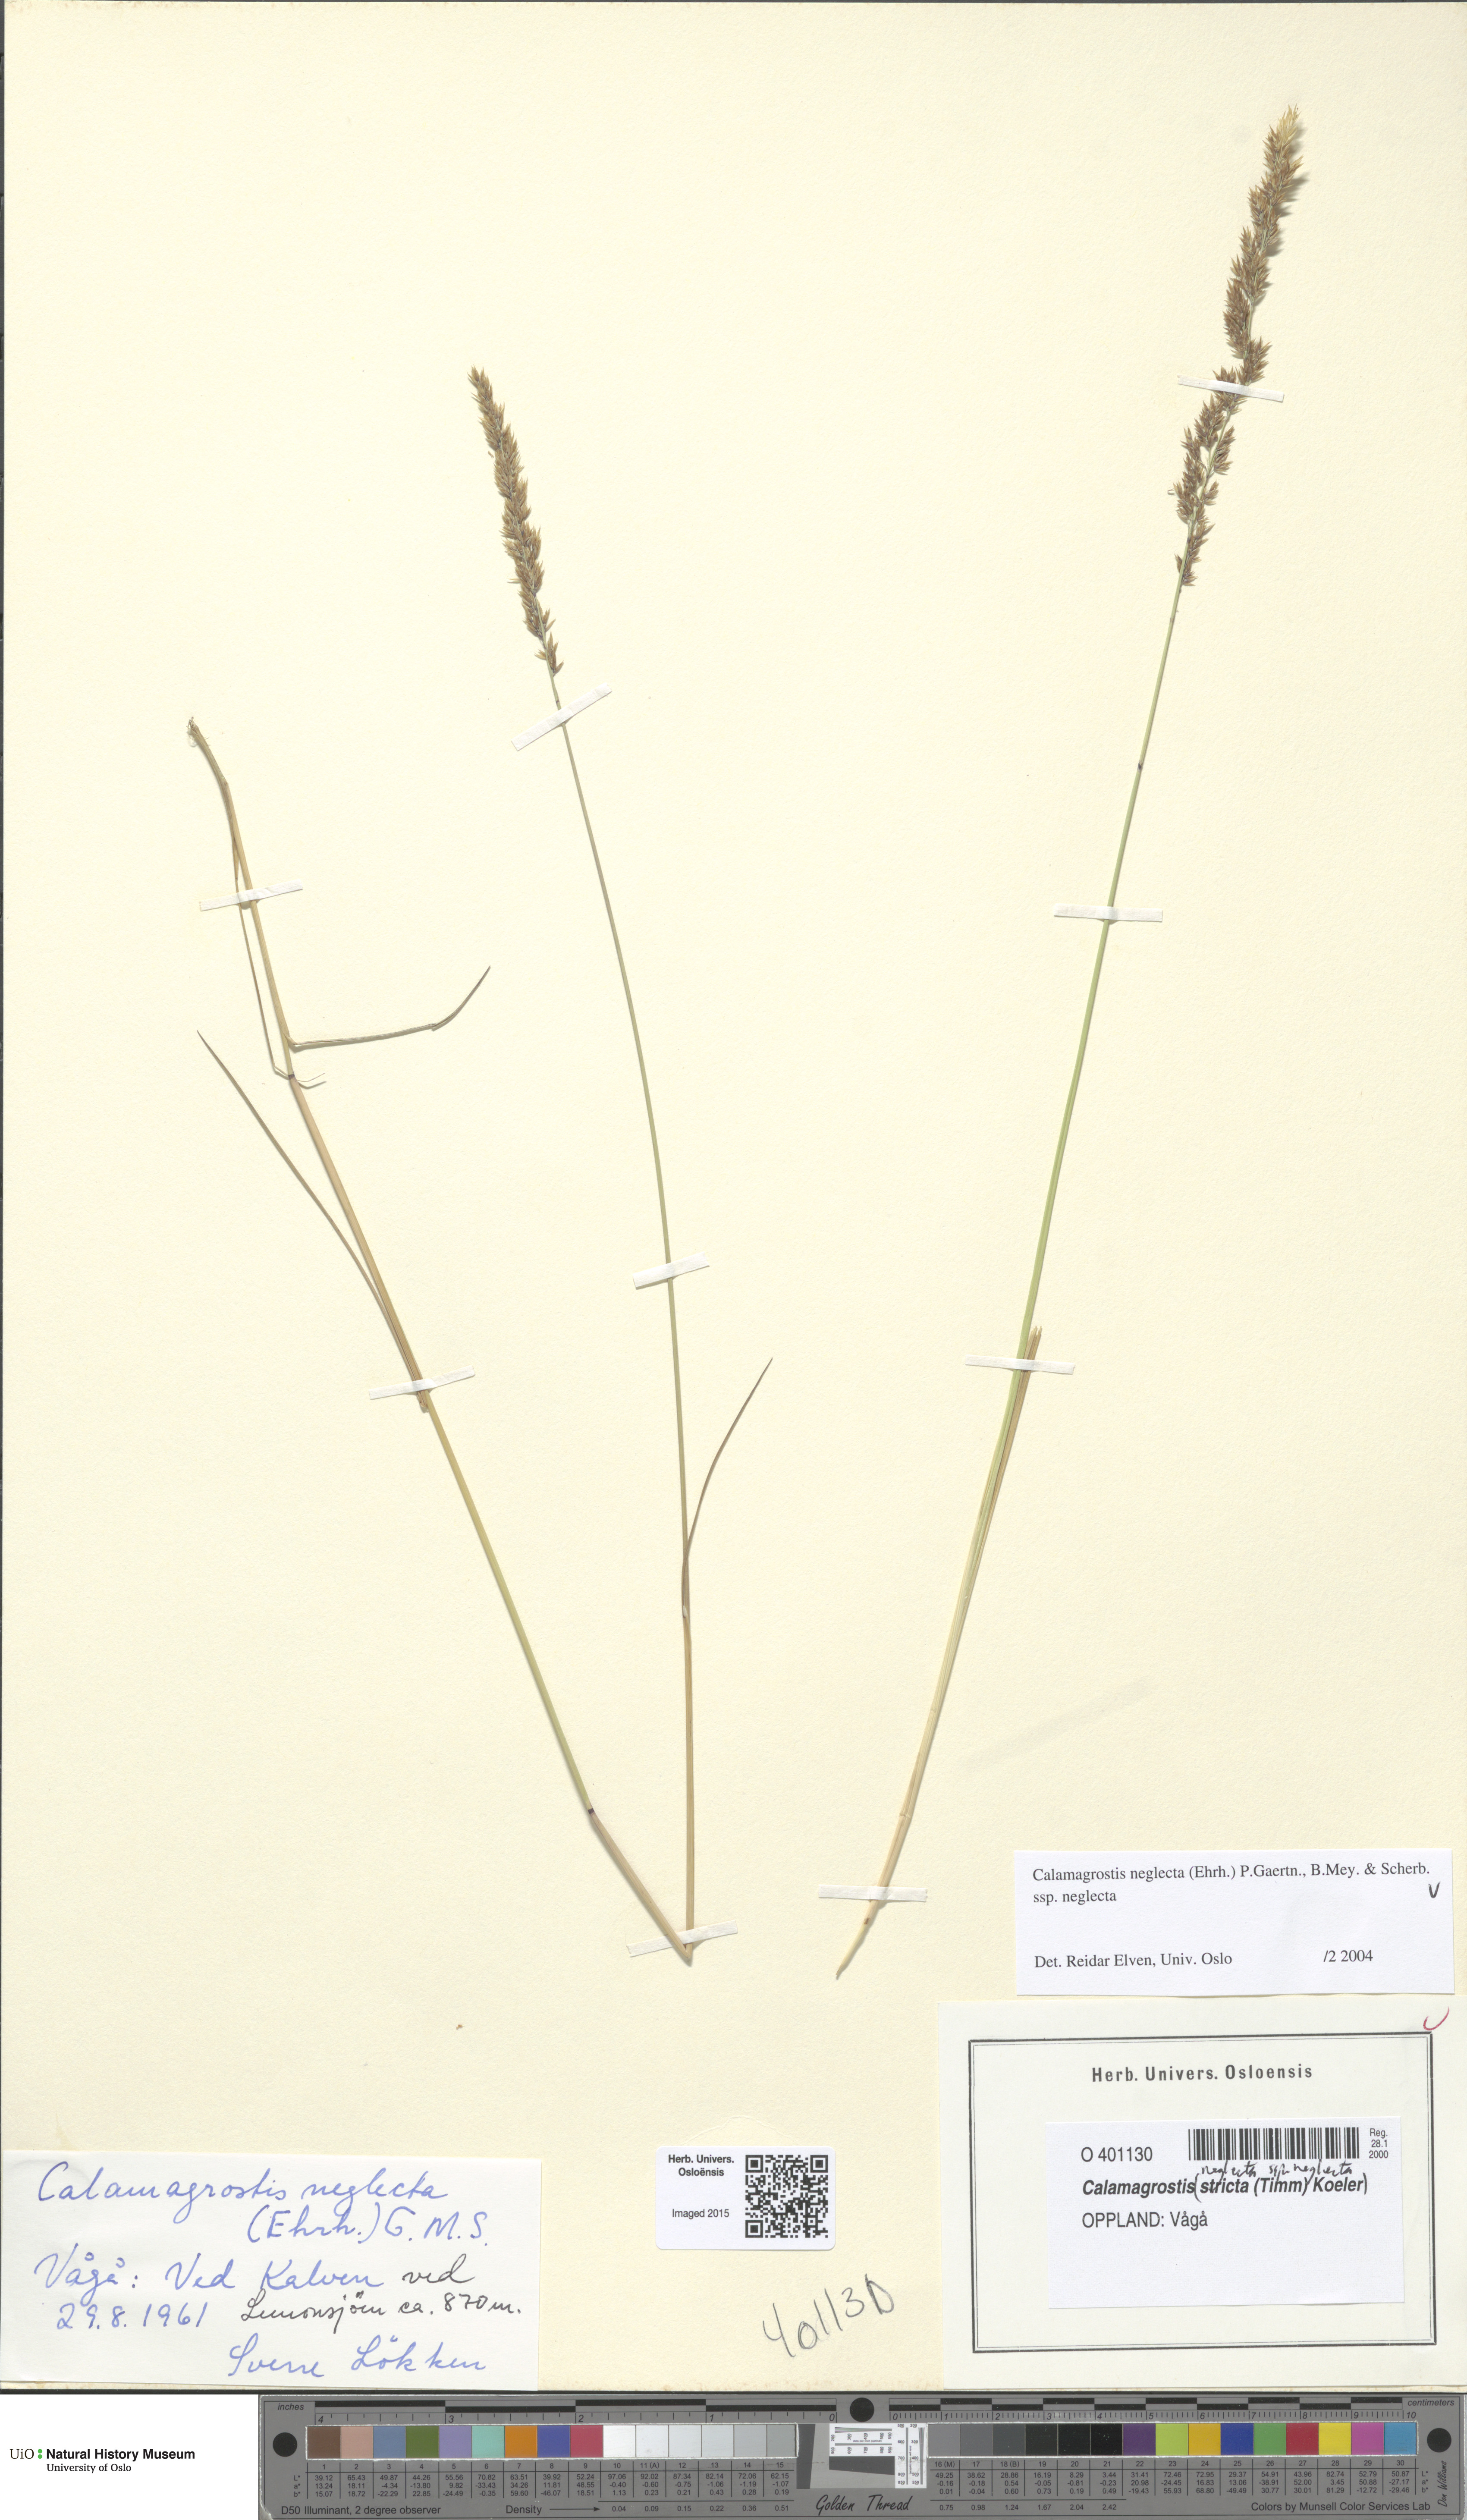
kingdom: Plantae
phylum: Tracheophyta
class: Liliopsida
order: Poales
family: Poaceae
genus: Achnatherum
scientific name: Achnatherum calamagrostis
